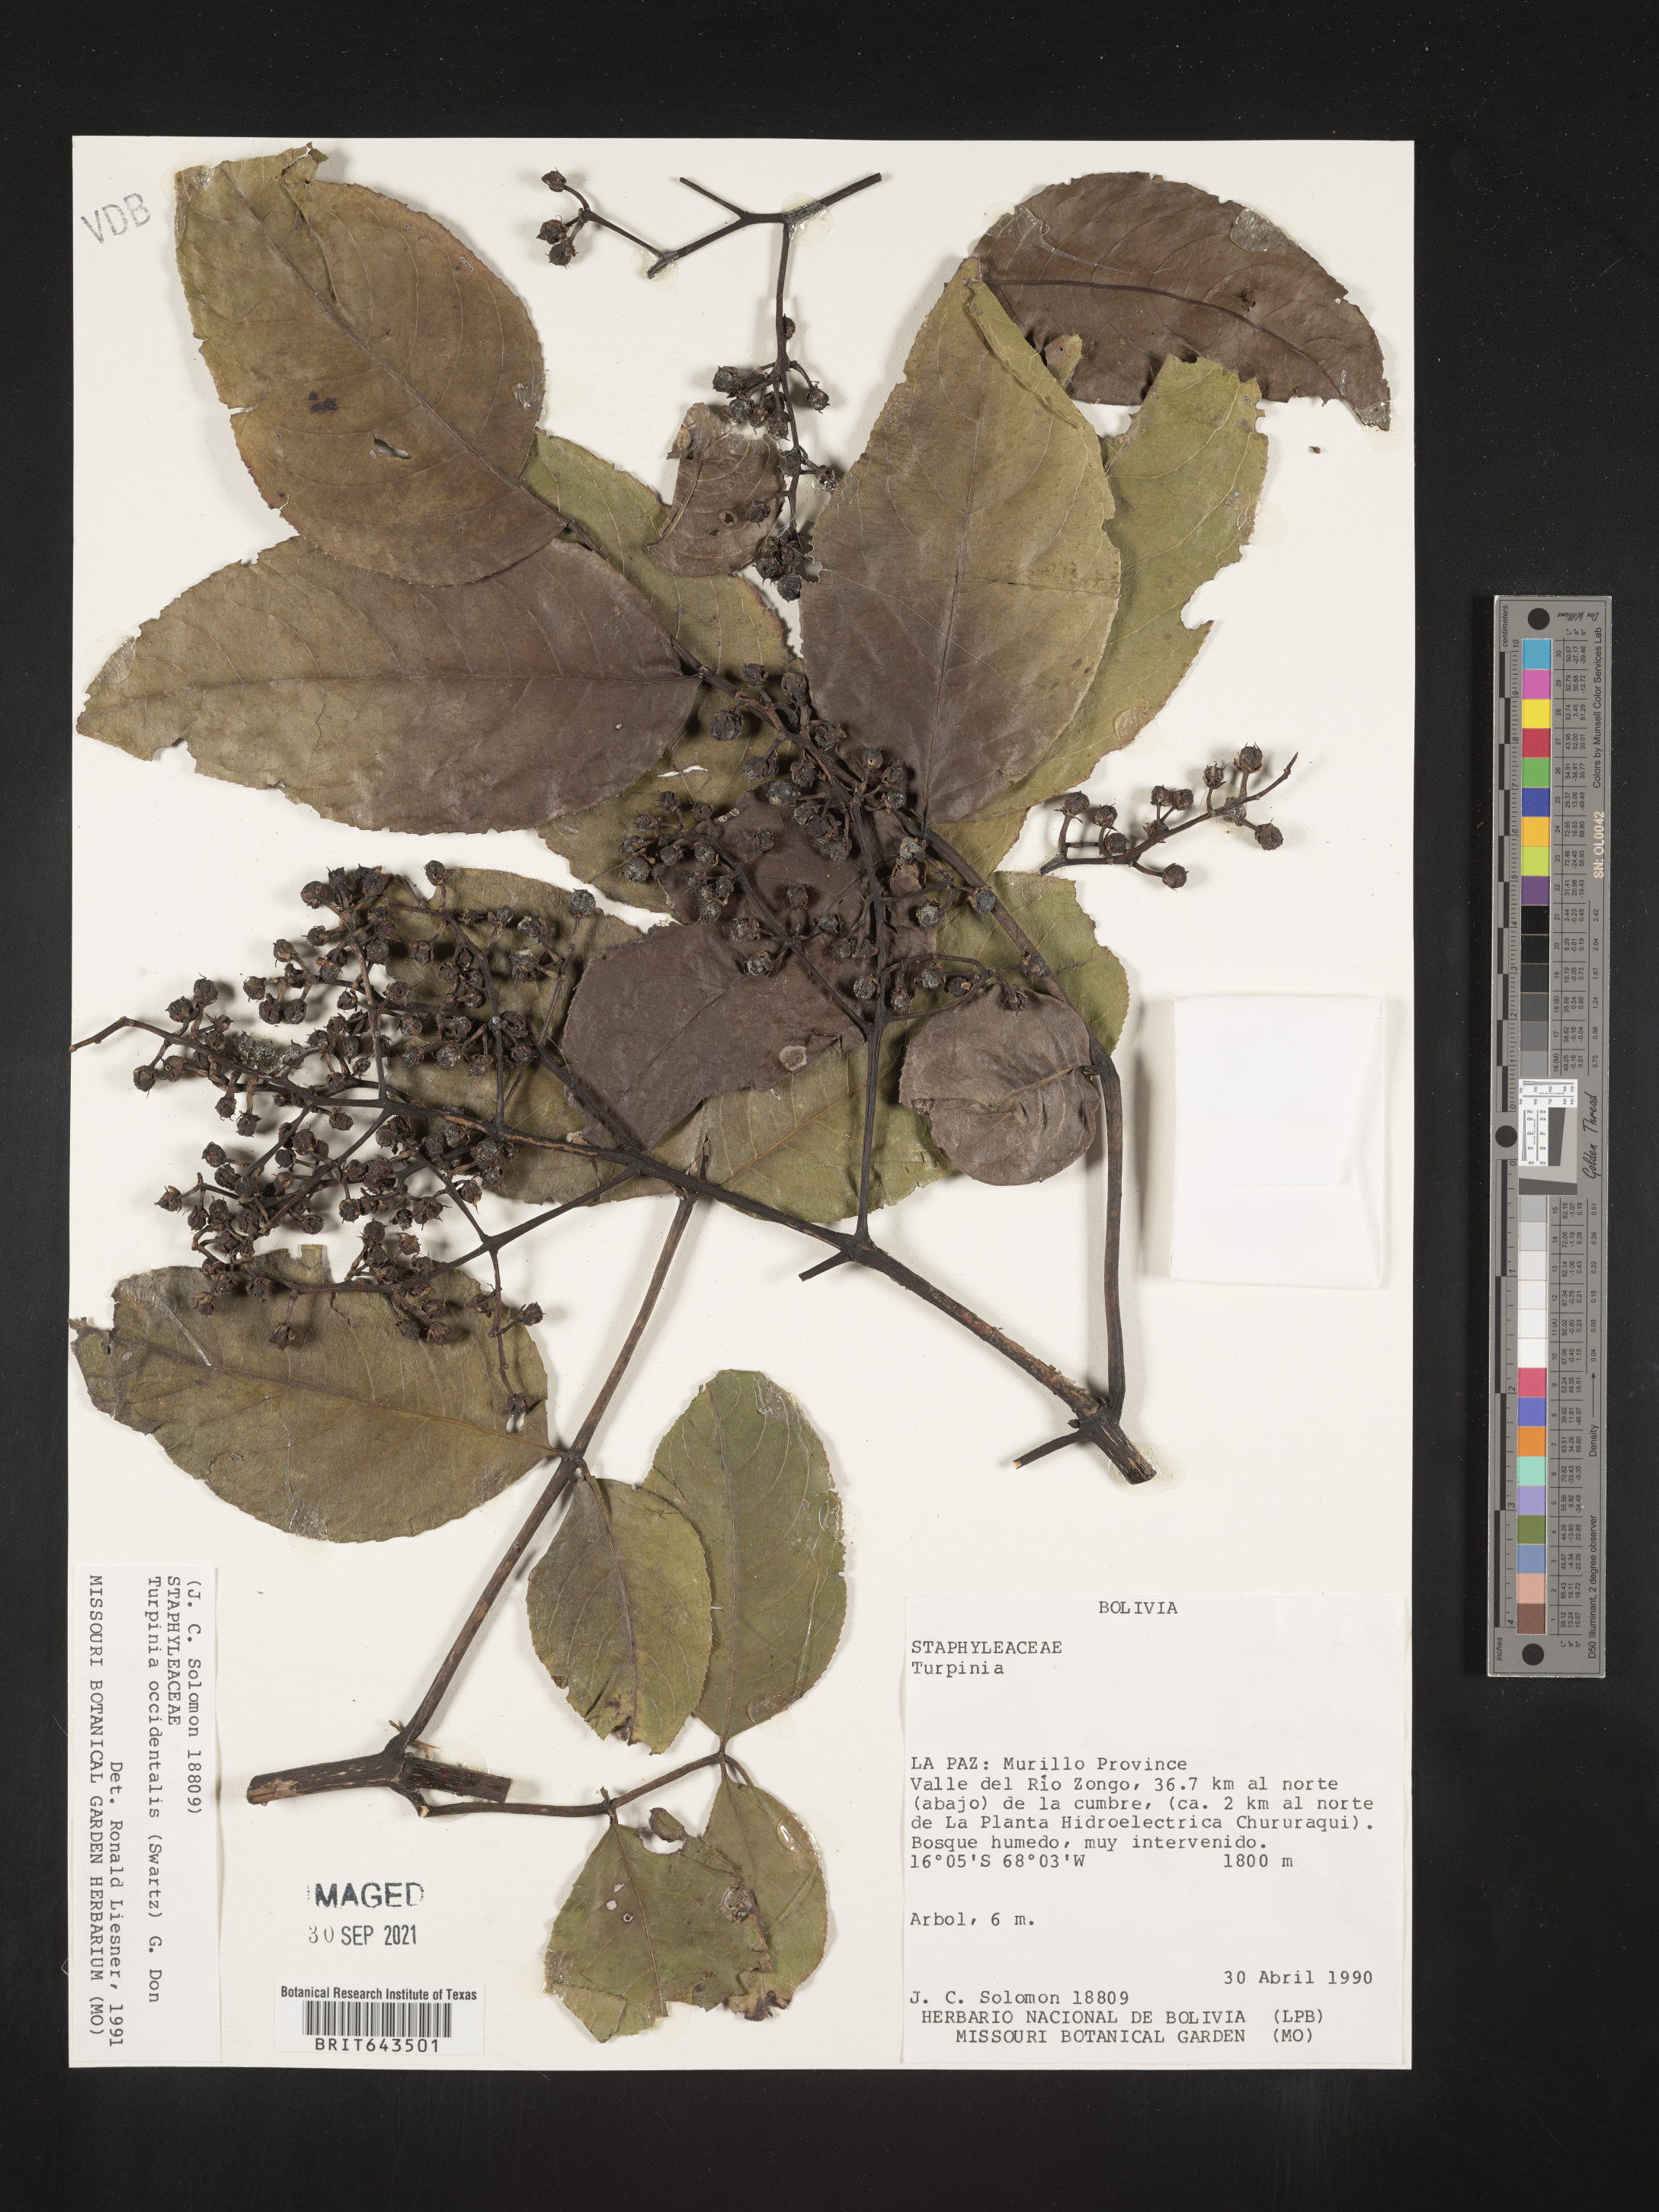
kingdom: Plantae
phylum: Tracheophyta
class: Magnoliopsida
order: Crossosomatales
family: Staphyleaceae
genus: Turpinia
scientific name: Turpinia
